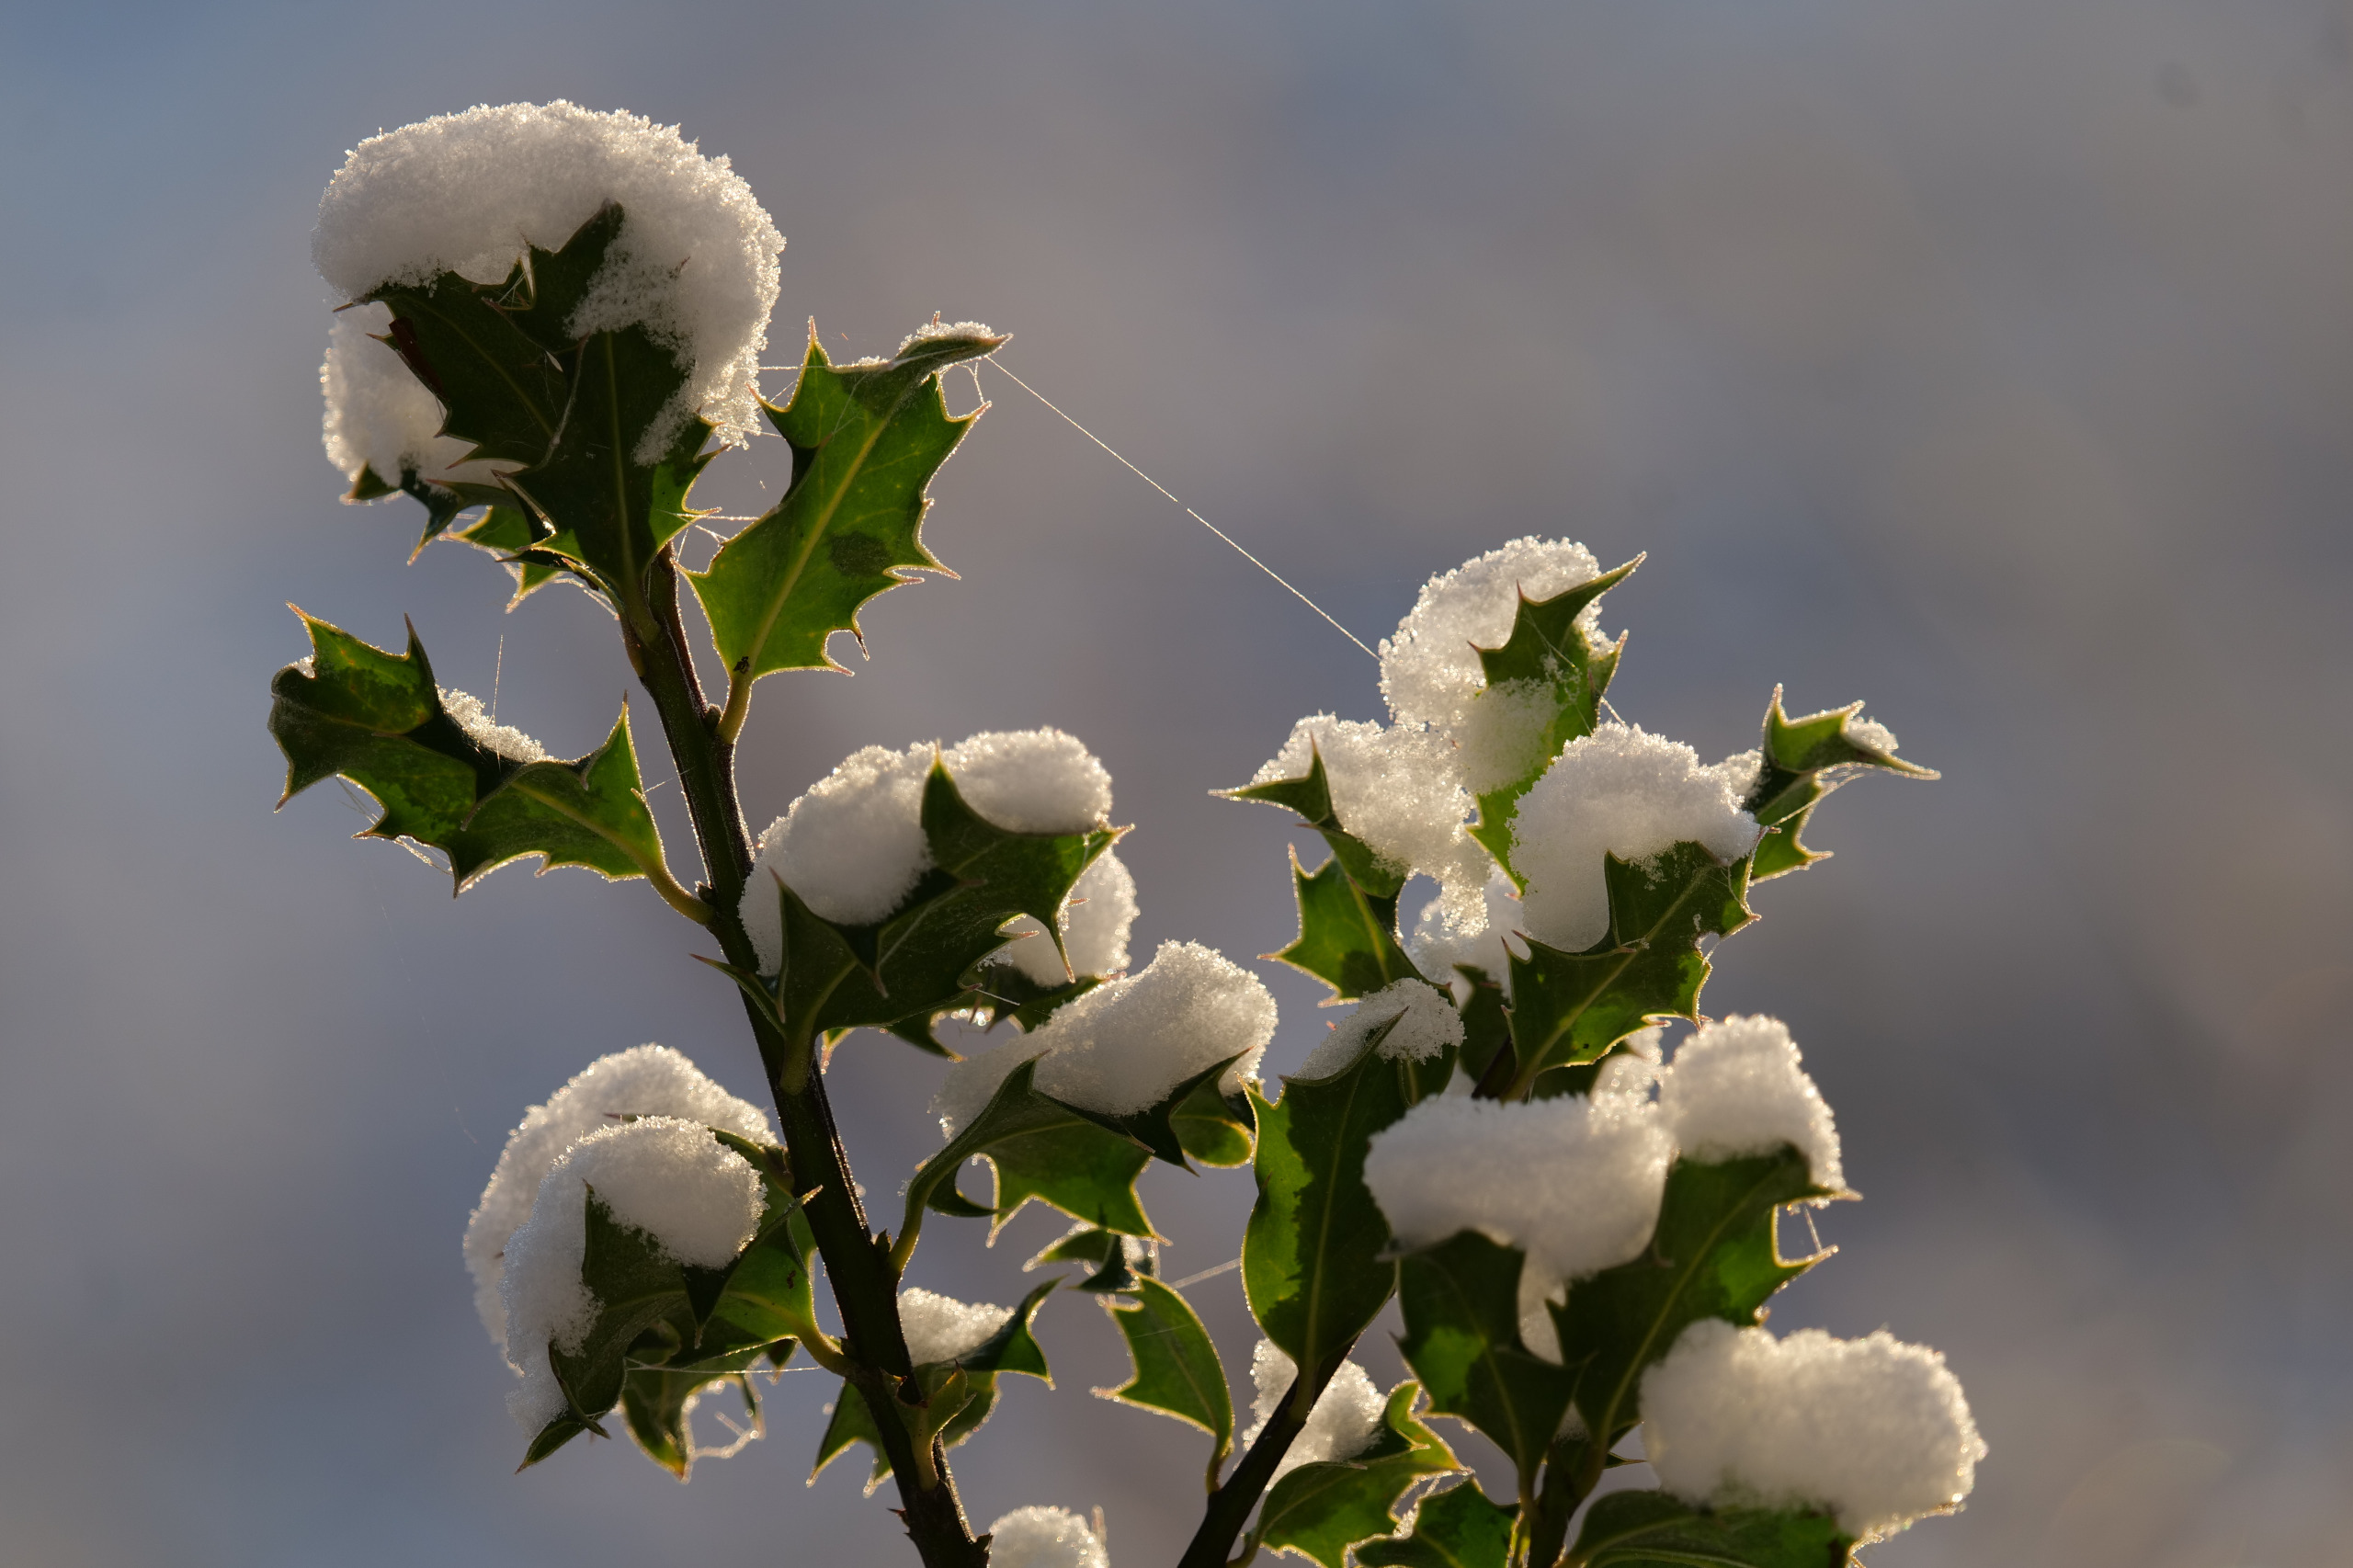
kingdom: Plantae
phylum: Tracheophyta
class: Magnoliopsida
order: Aquifoliales
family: Aquifoliaceae
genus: Ilex
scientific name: Ilex aquifolium
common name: Kristtorn
